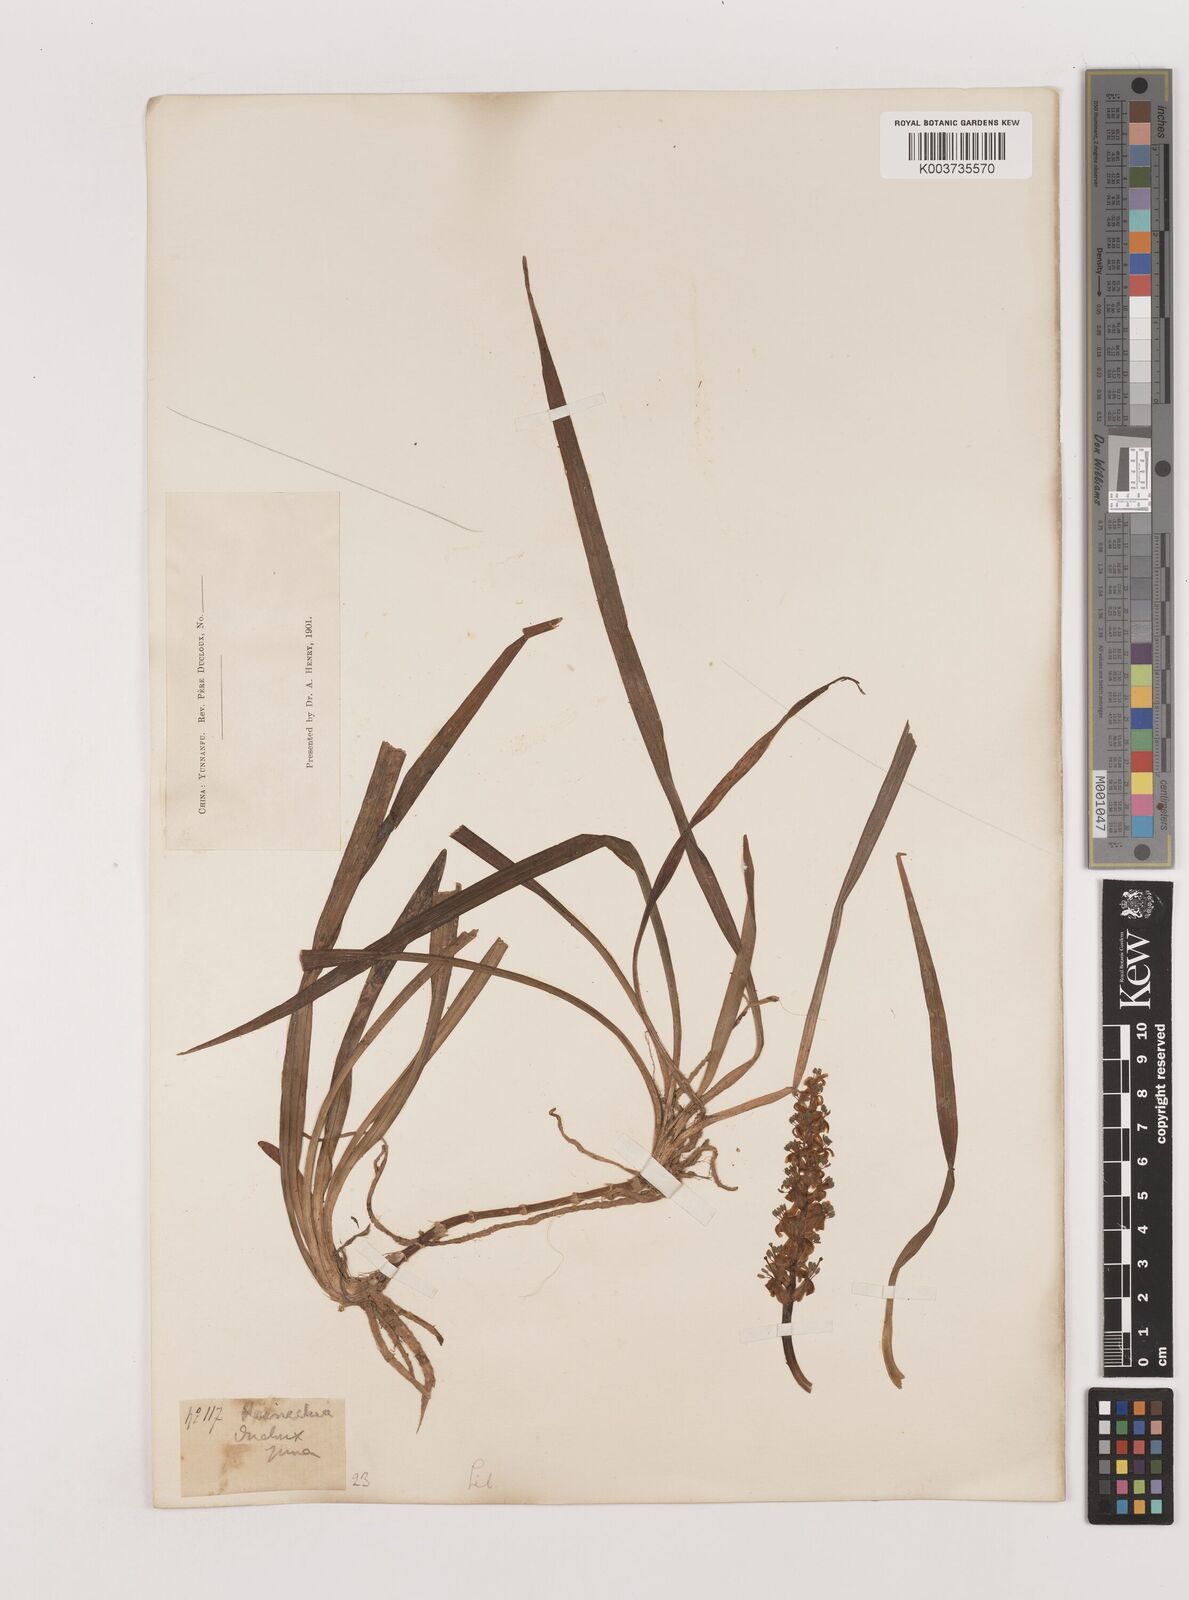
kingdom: Plantae
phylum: Tracheophyta
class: Liliopsida
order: Asparagales
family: Asparagaceae
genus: Reineckea
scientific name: Reineckea carnea
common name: Reineckea
